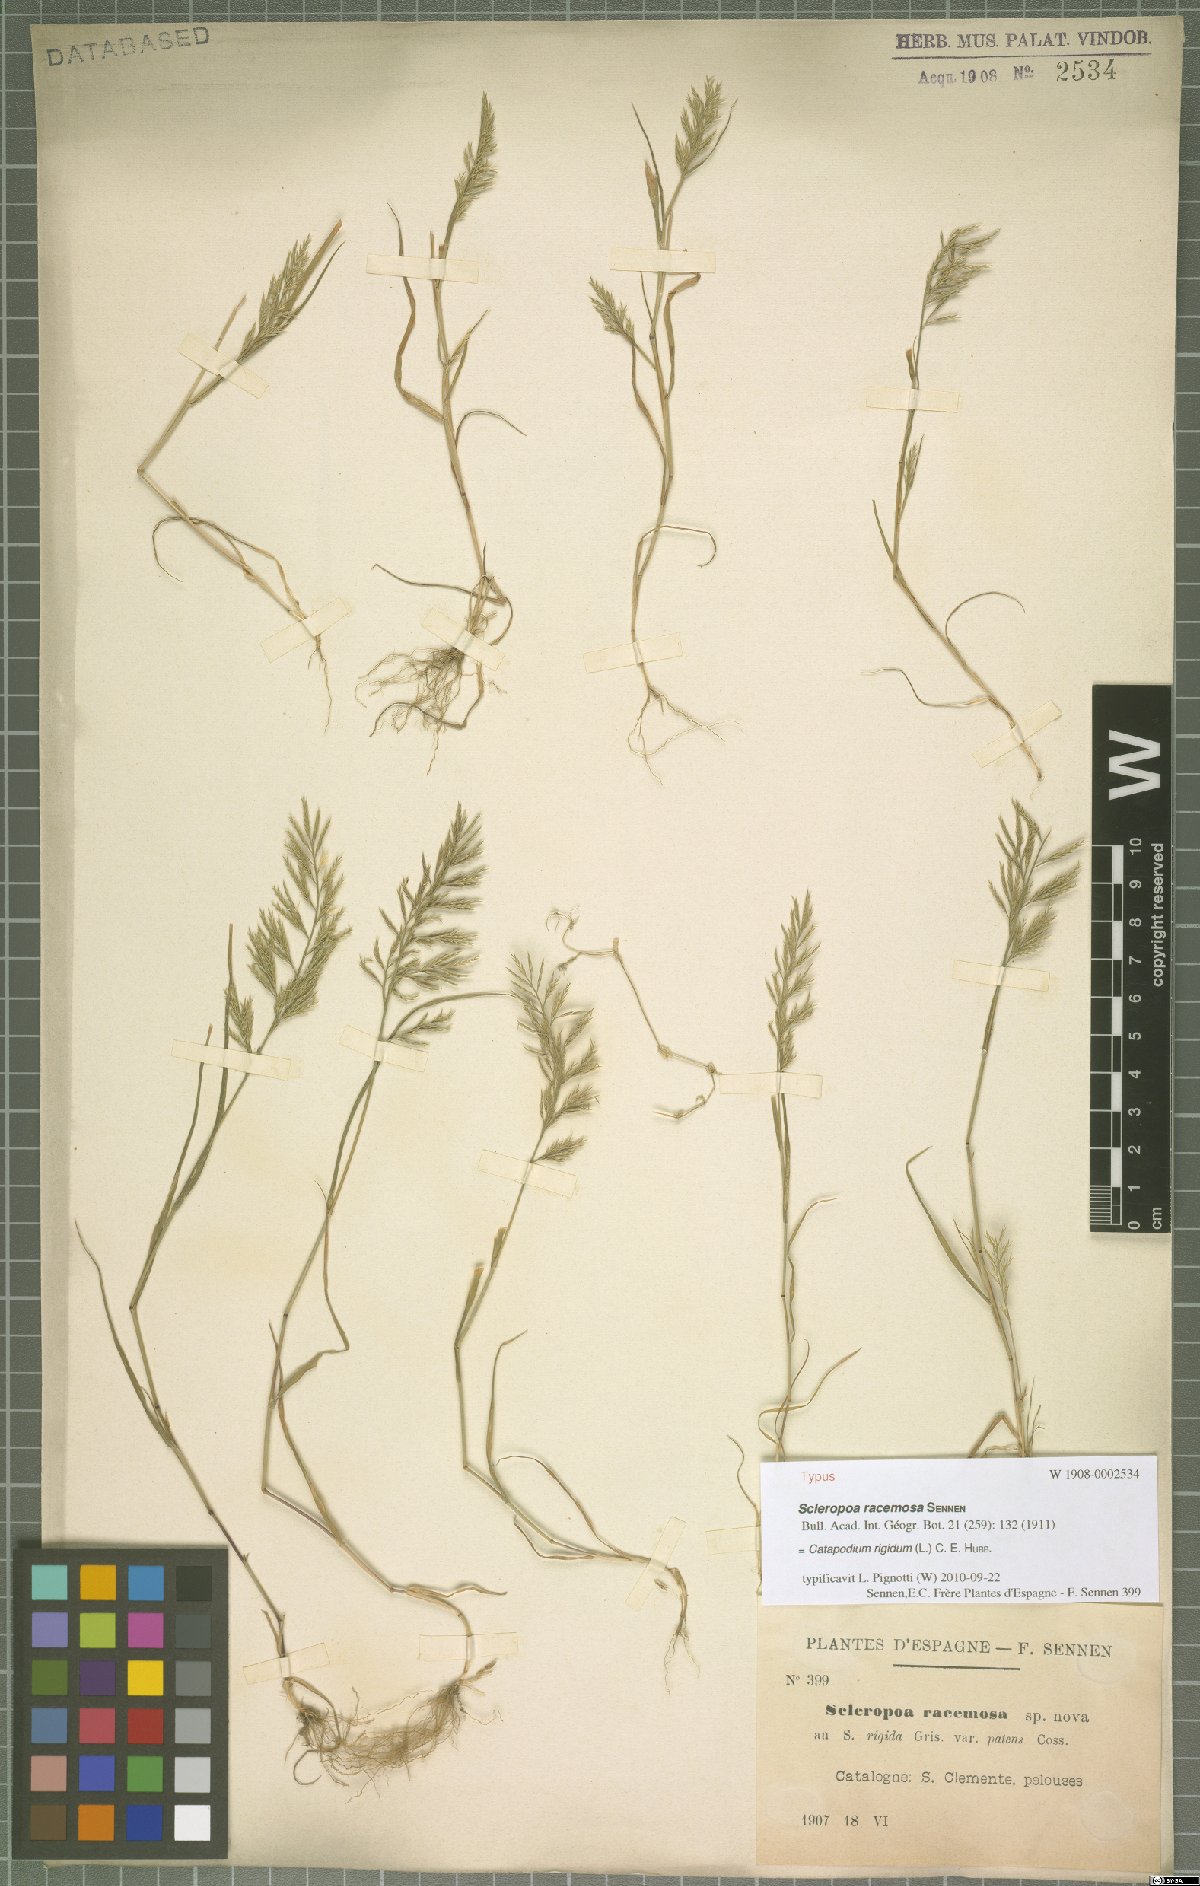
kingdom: Plantae
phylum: Tracheophyta
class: Liliopsida
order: Poales
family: Poaceae
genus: Catapodium
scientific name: Catapodium rigidum
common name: Fern-grass
